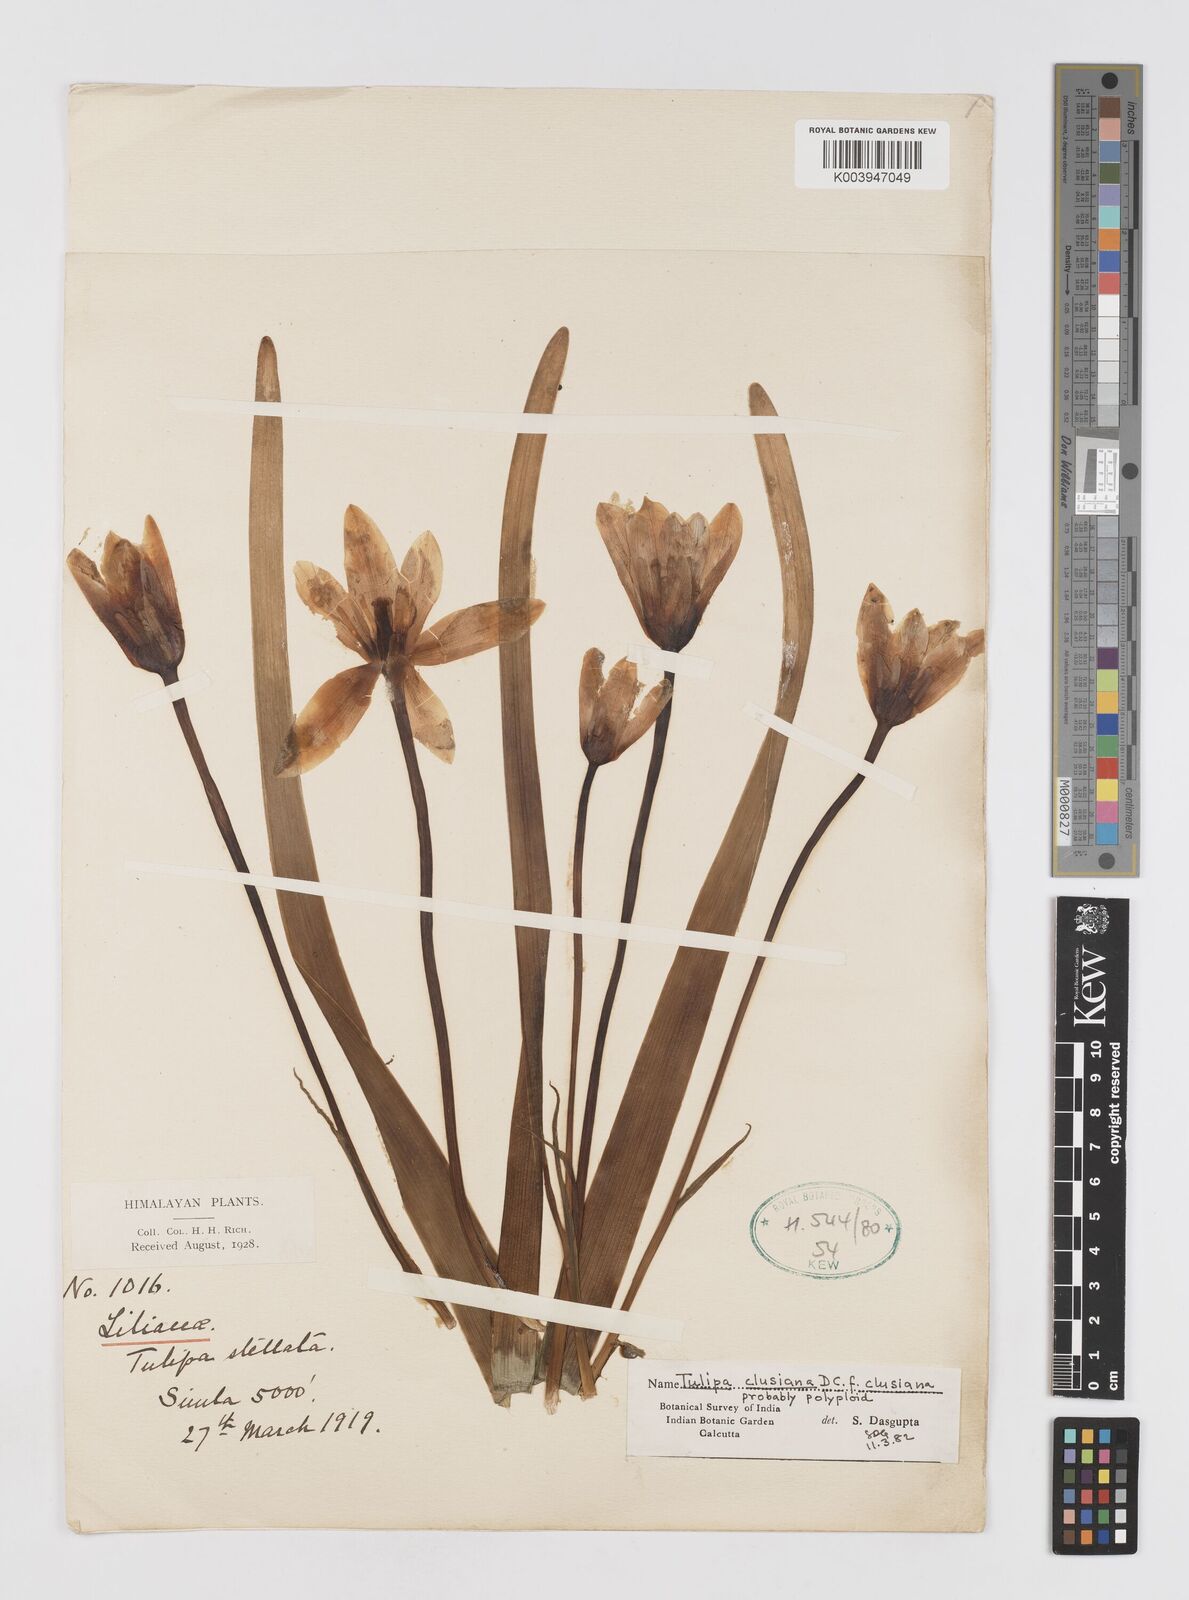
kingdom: Plantae
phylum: Tracheophyta
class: Liliopsida
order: Liliales
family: Liliaceae
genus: Tulipa
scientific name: Tulipa clusiana
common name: Lady tulip
